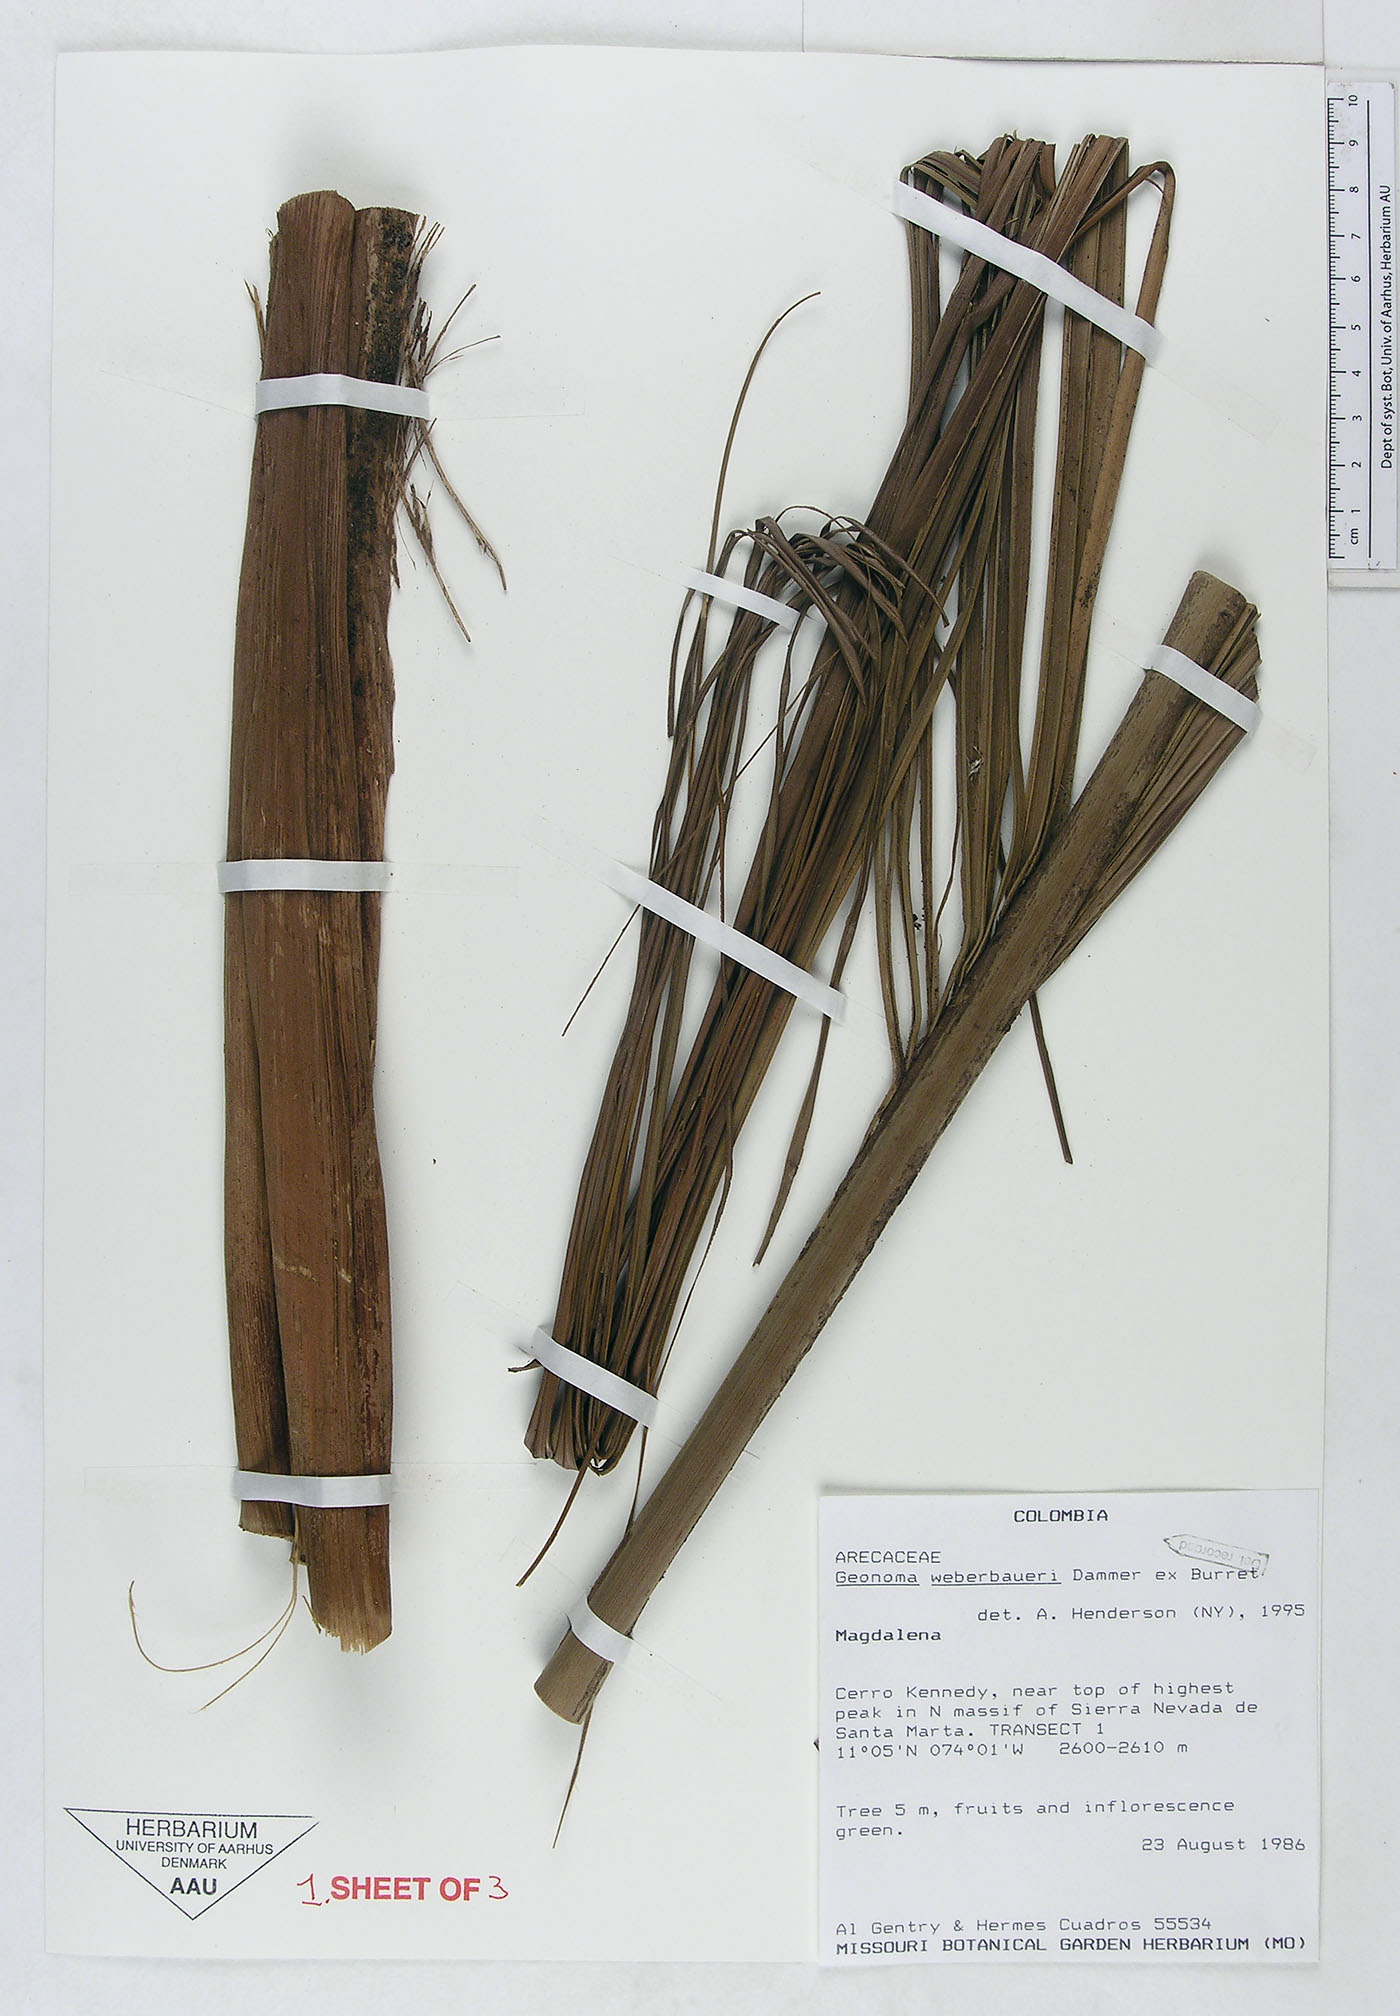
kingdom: Plantae
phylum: Tracheophyta
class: Liliopsida
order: Arecales
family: Arecaceae
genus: Geonoma
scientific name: Geonoma undata
